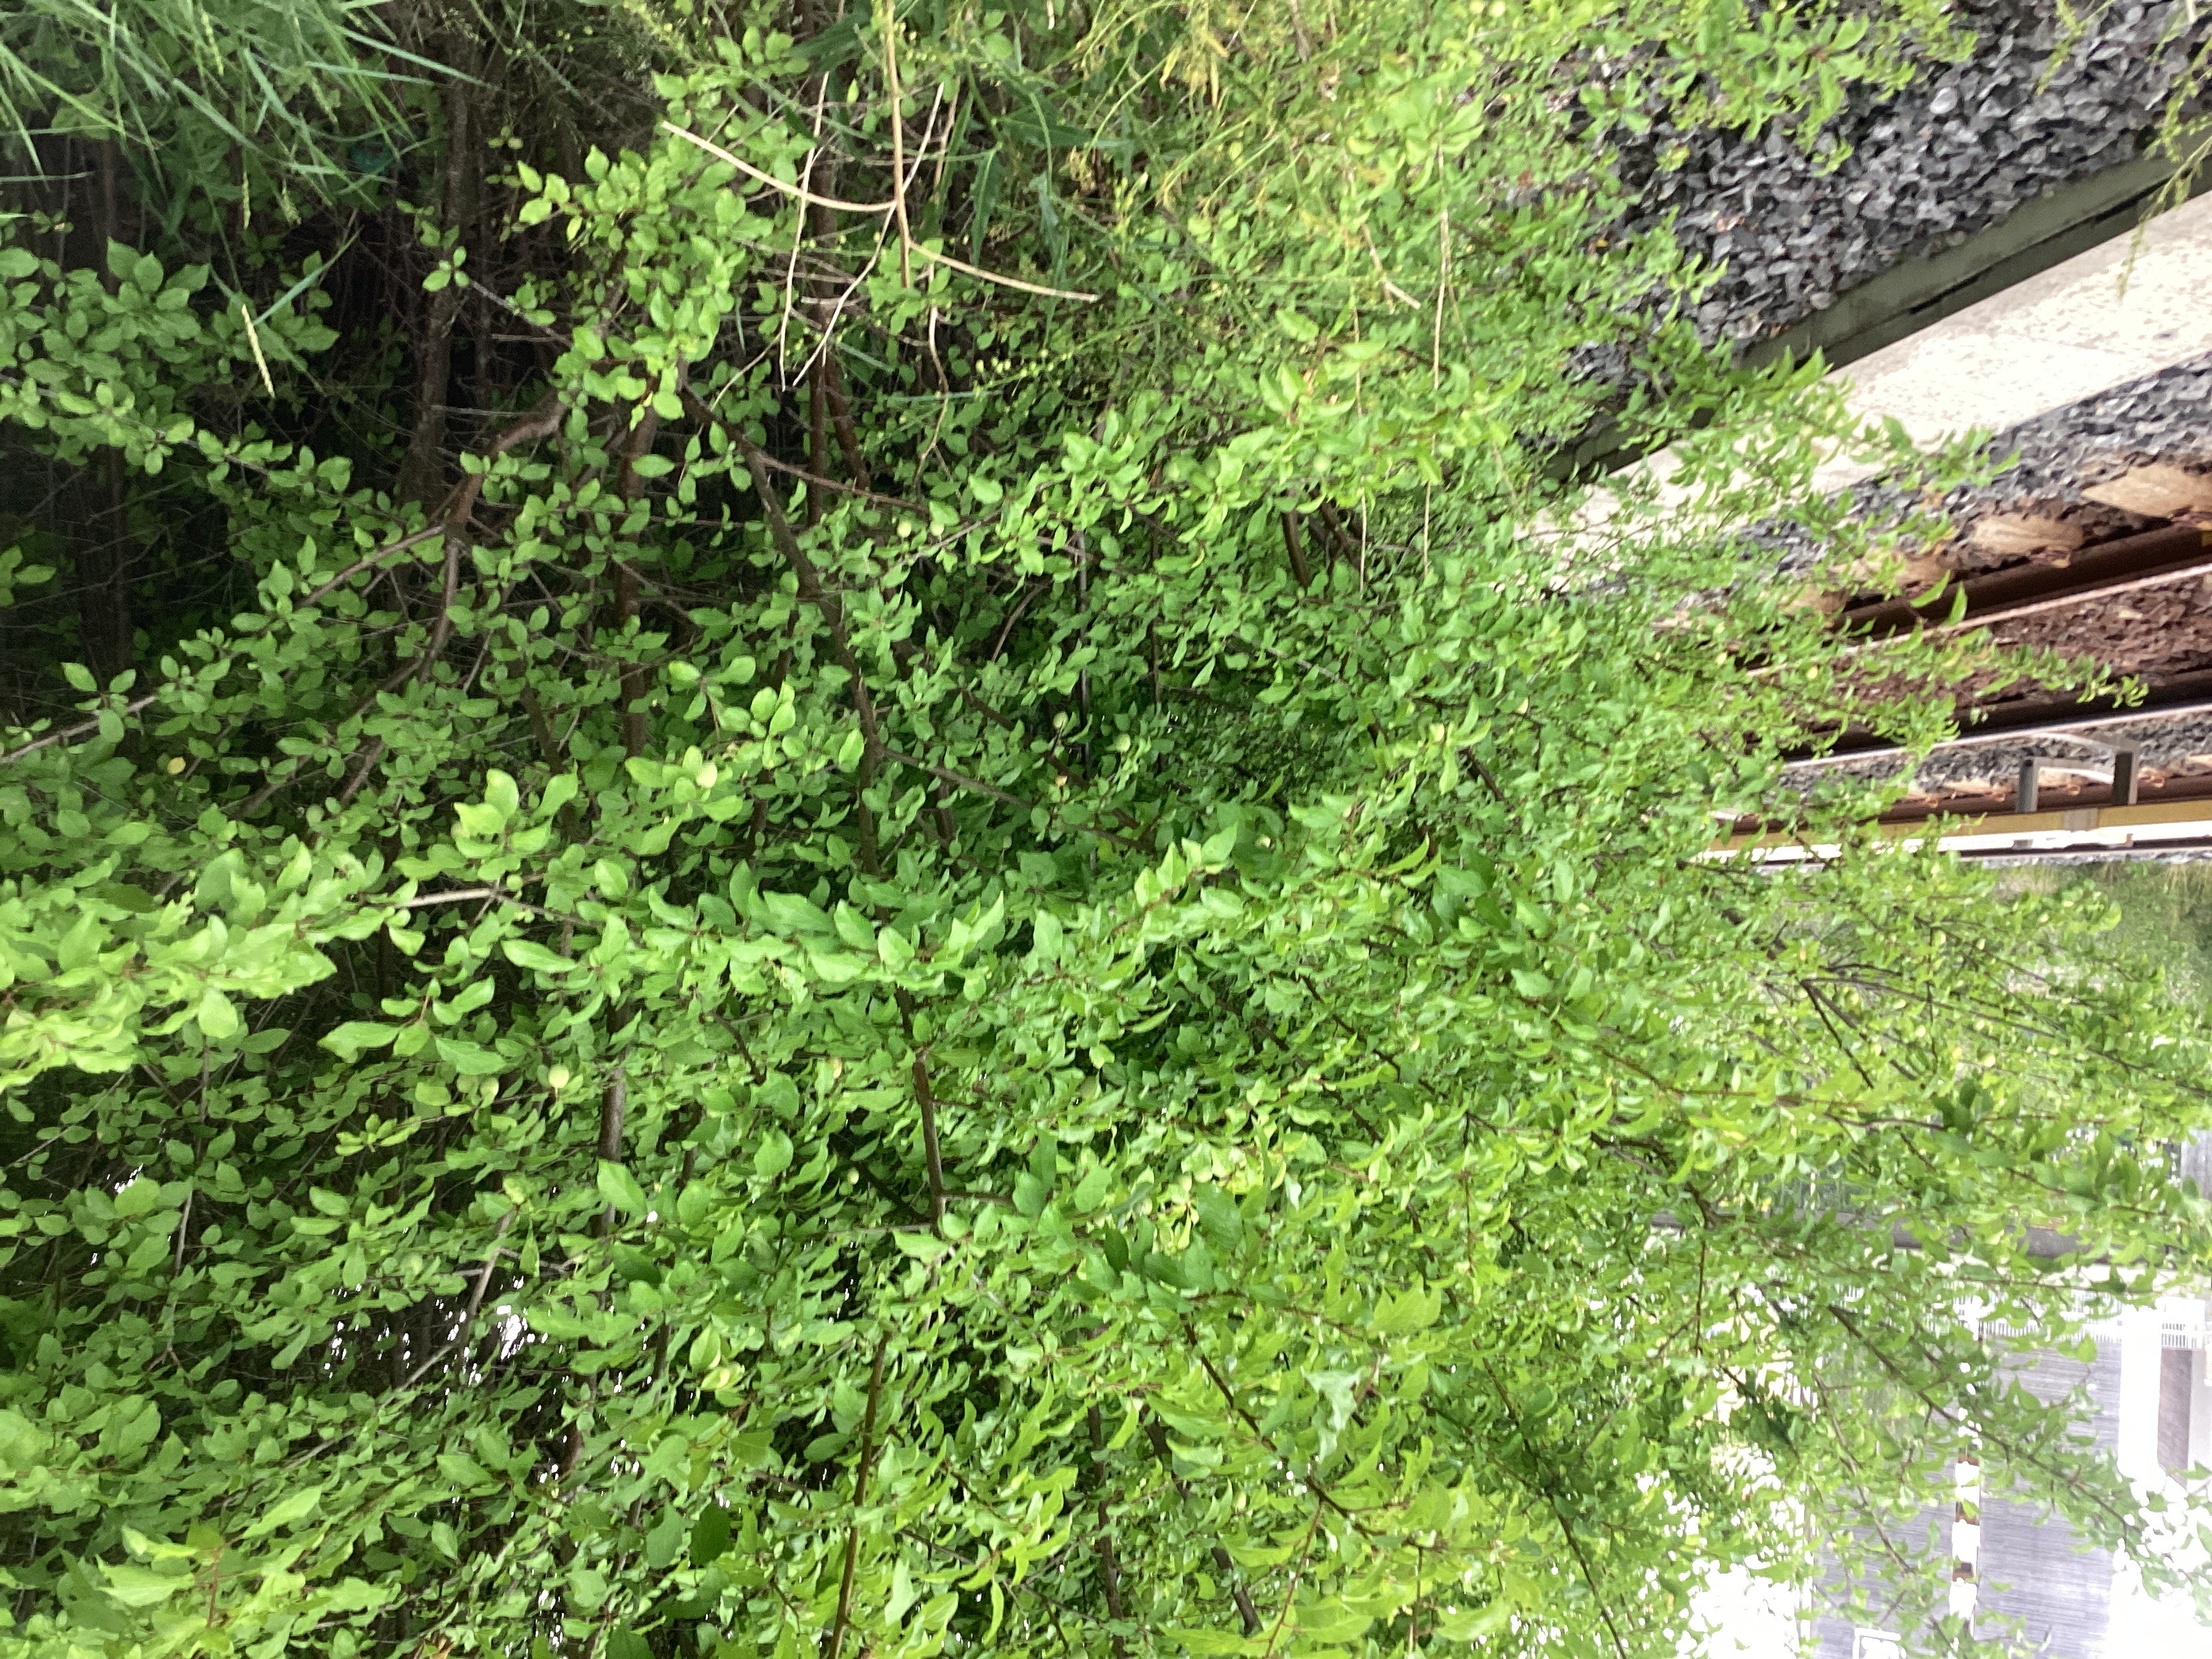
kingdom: Plantae
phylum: Tracheophyta
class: Magnoliopsida
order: Rosales
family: Rosaceae
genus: Prunus
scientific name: Prunus domestica
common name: plomme
